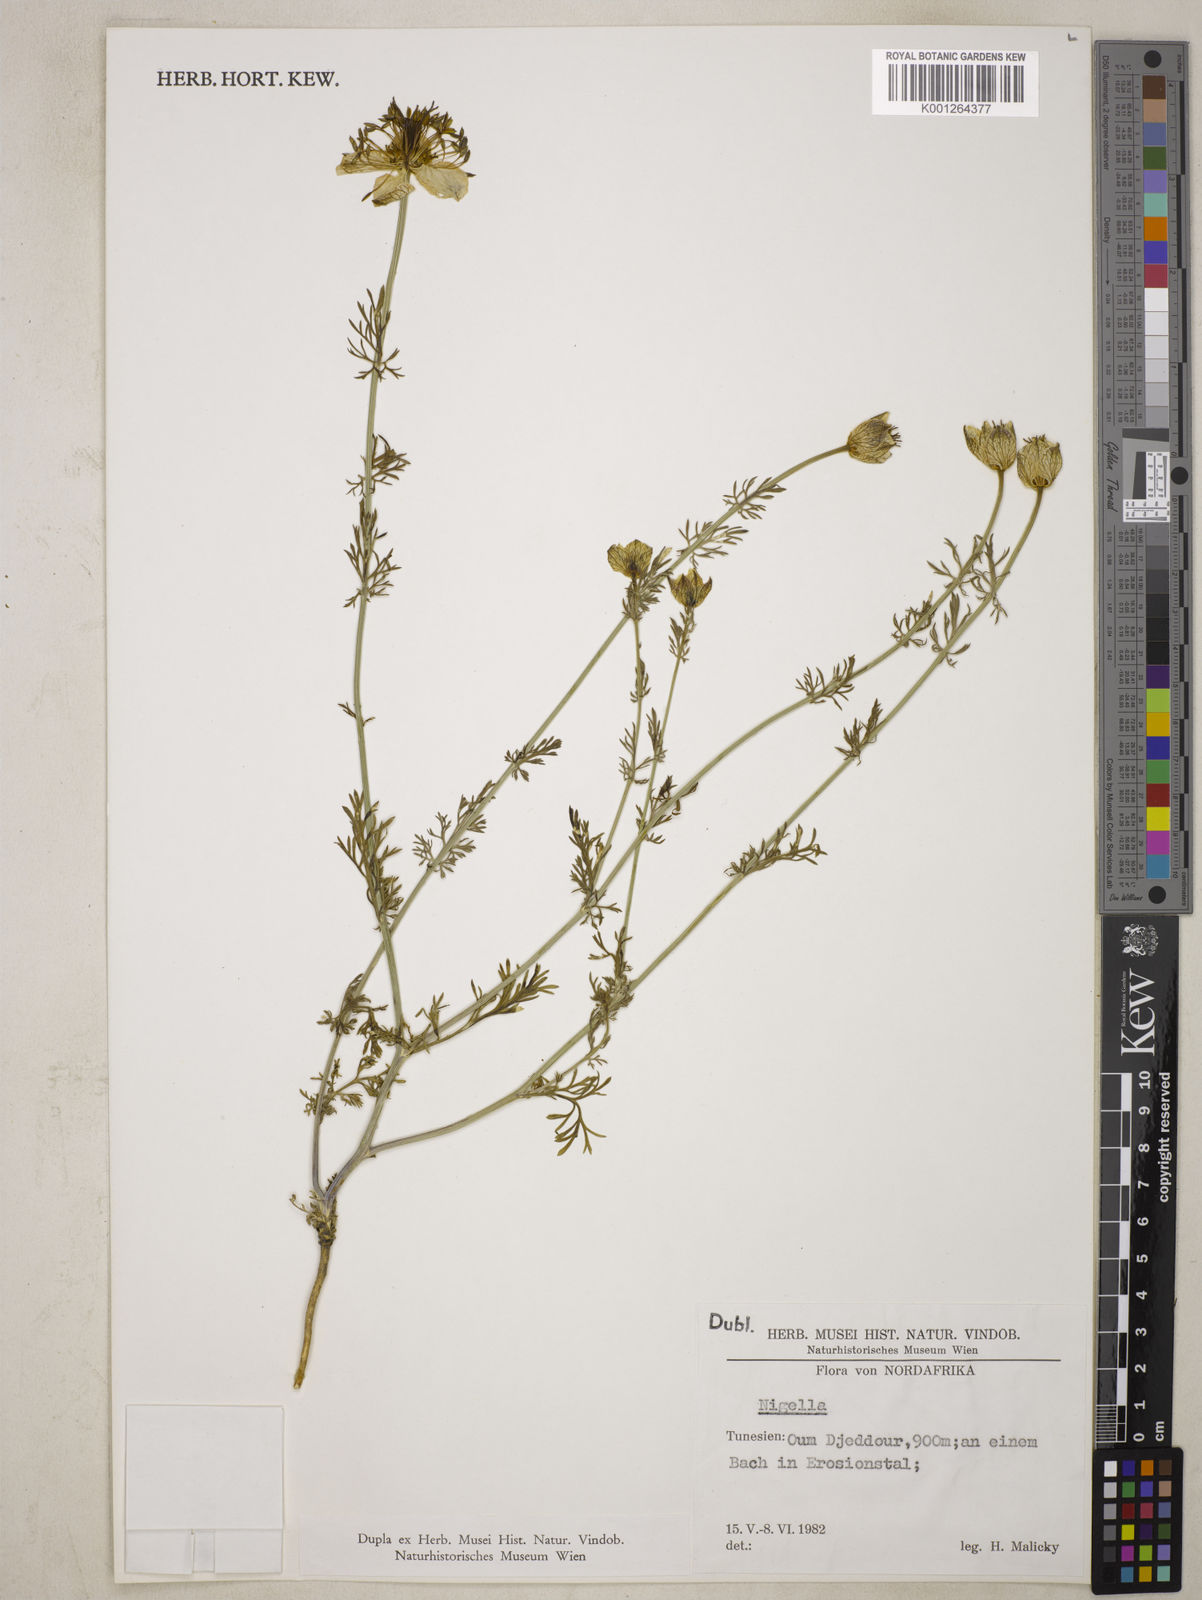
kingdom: Plantae
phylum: Tracheophyta
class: Magnoliopsida
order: Ranunculales
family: Ranunculaceae
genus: Nigella
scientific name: Nigella hispanica
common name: Fennel-flower
